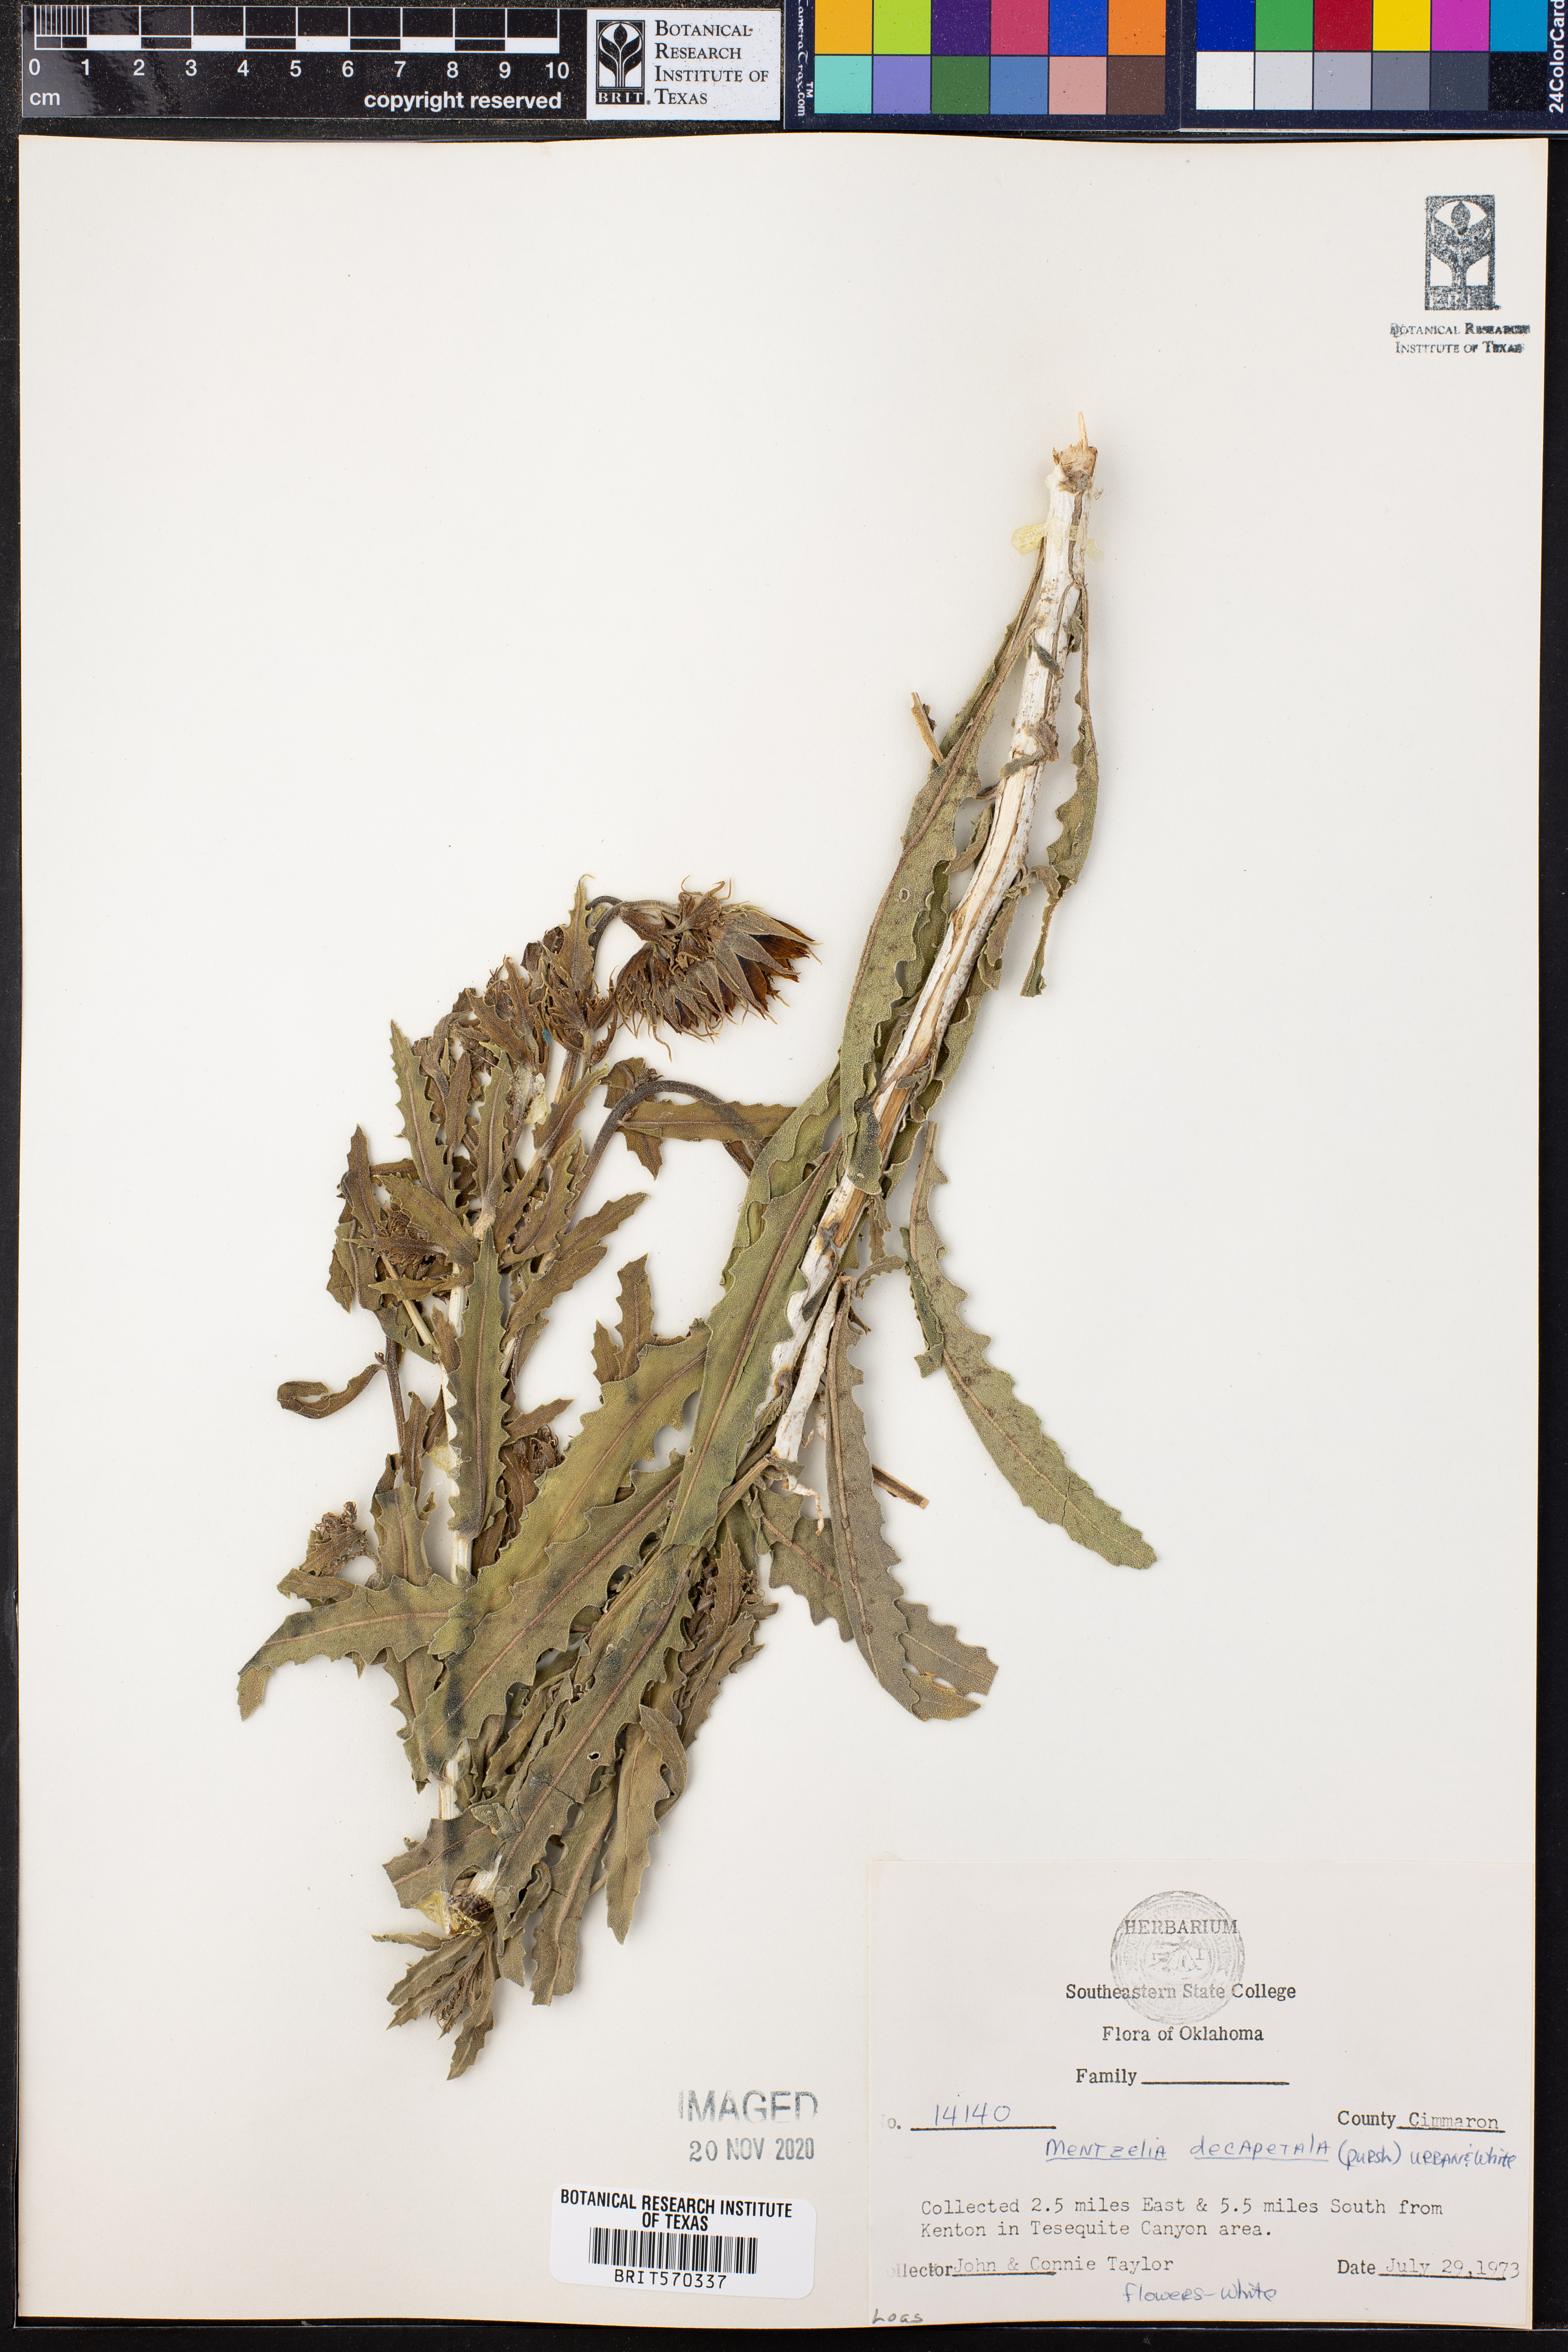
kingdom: Plantae
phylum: Tracheophyta
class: Magnoliopsida
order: Cornales
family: Loasaceae
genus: Mentzelia
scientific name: Mentzelia decapetala
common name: Gumbo-lily
